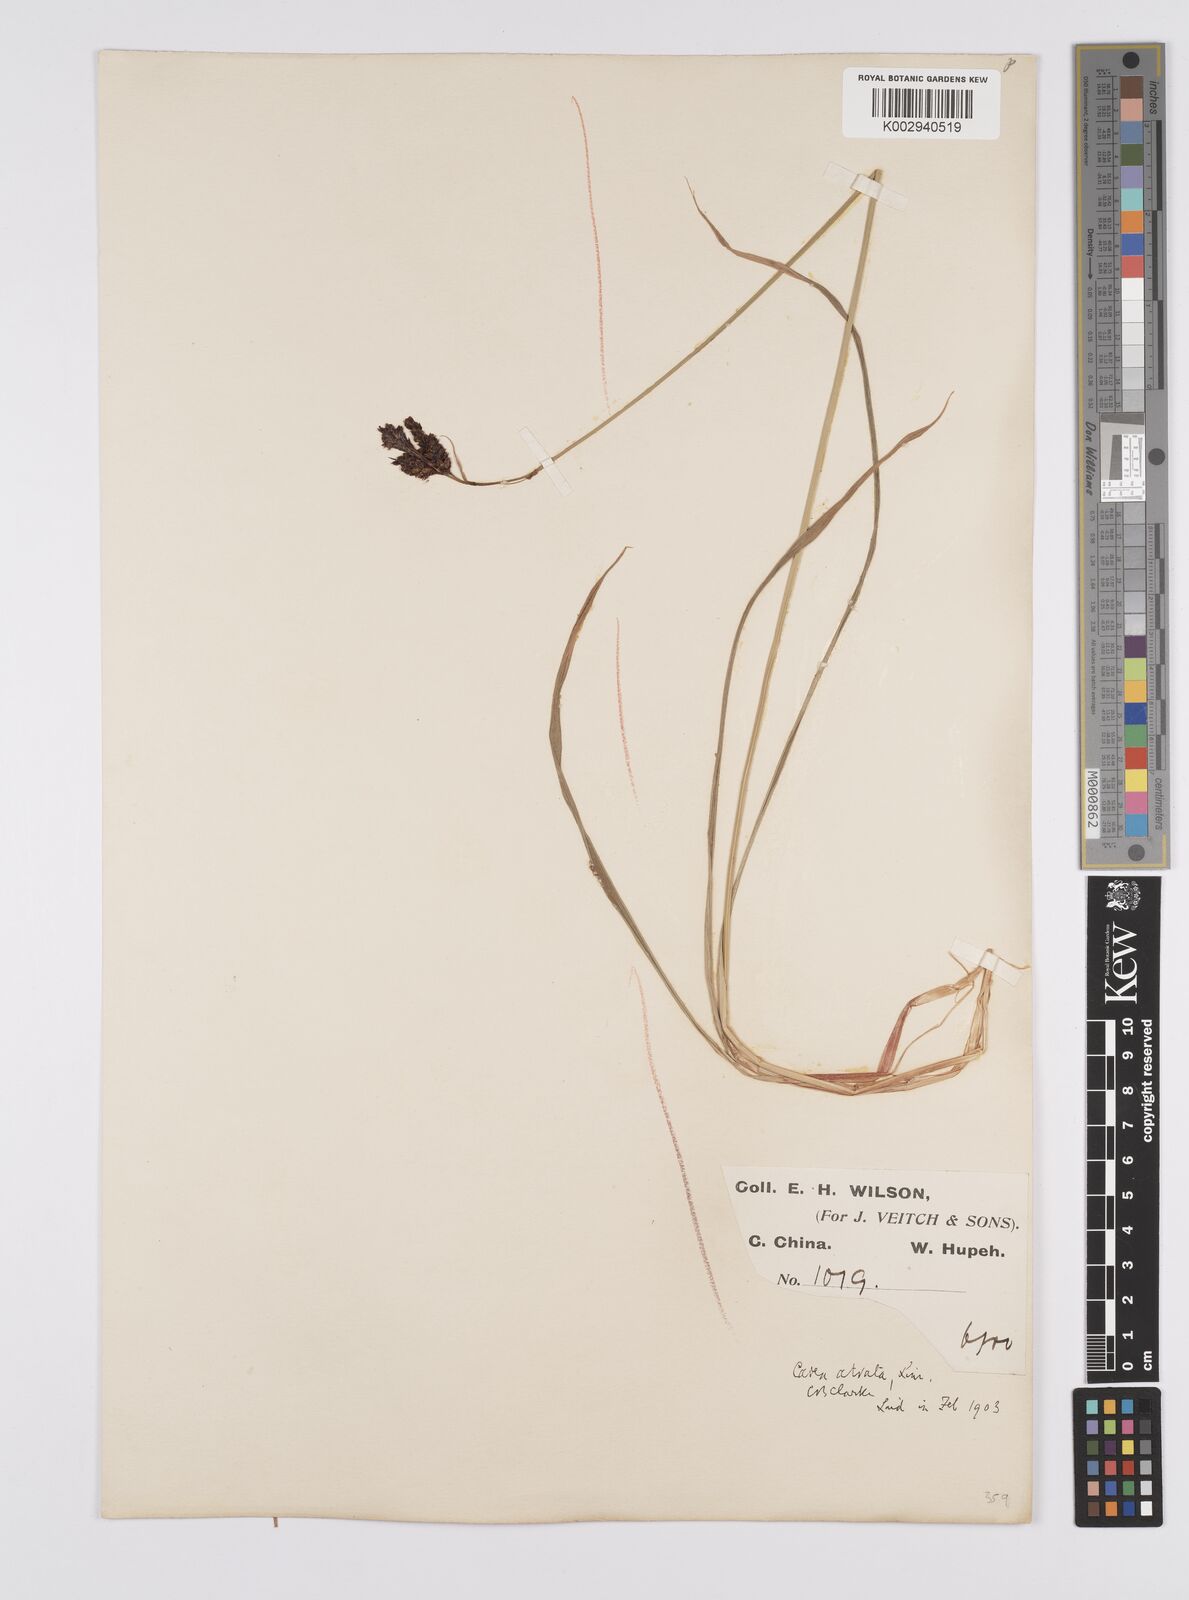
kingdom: Plantae
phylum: Tracheophyta
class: Liliopsida
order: Poales
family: Cyperaceae
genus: Carex
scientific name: Carex atrata
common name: Black alpine sedge
